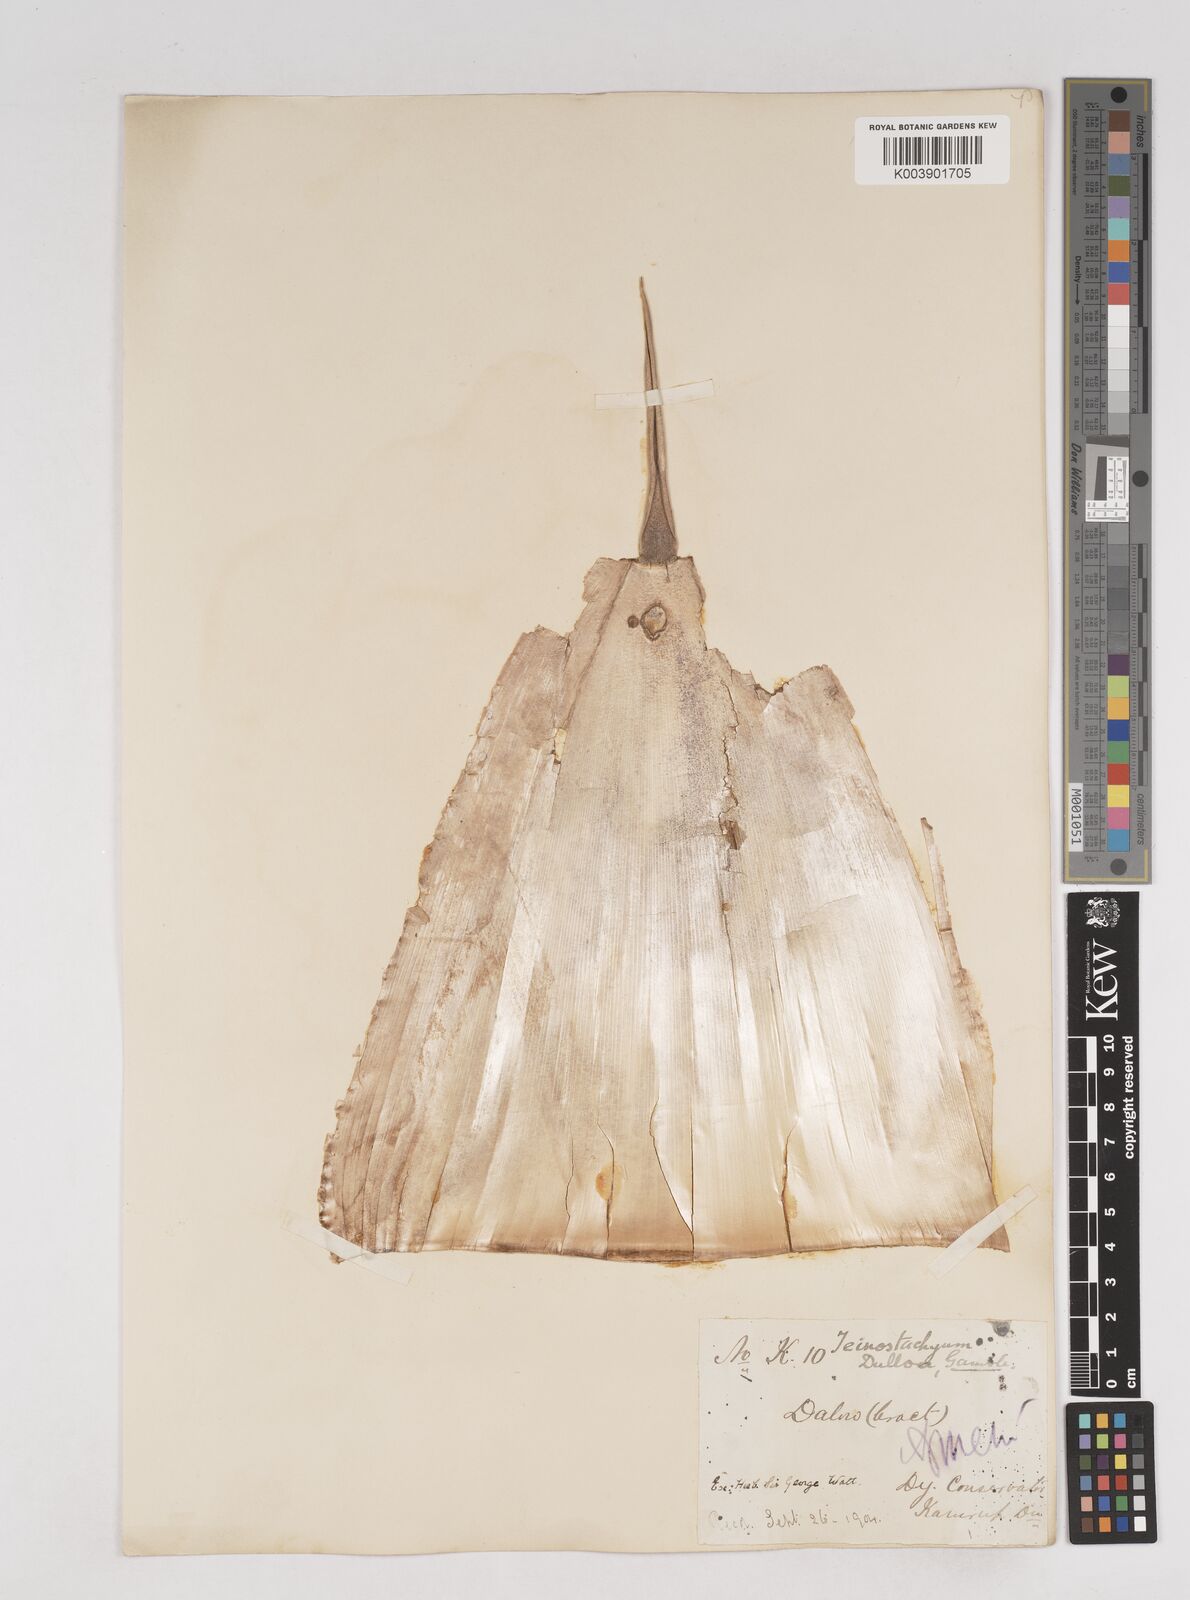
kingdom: Plantae
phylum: Tracheophyta
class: Liliopsida
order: Poales
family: Poaceae
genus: Schizostachyum
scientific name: Schizostachyum dullooa
